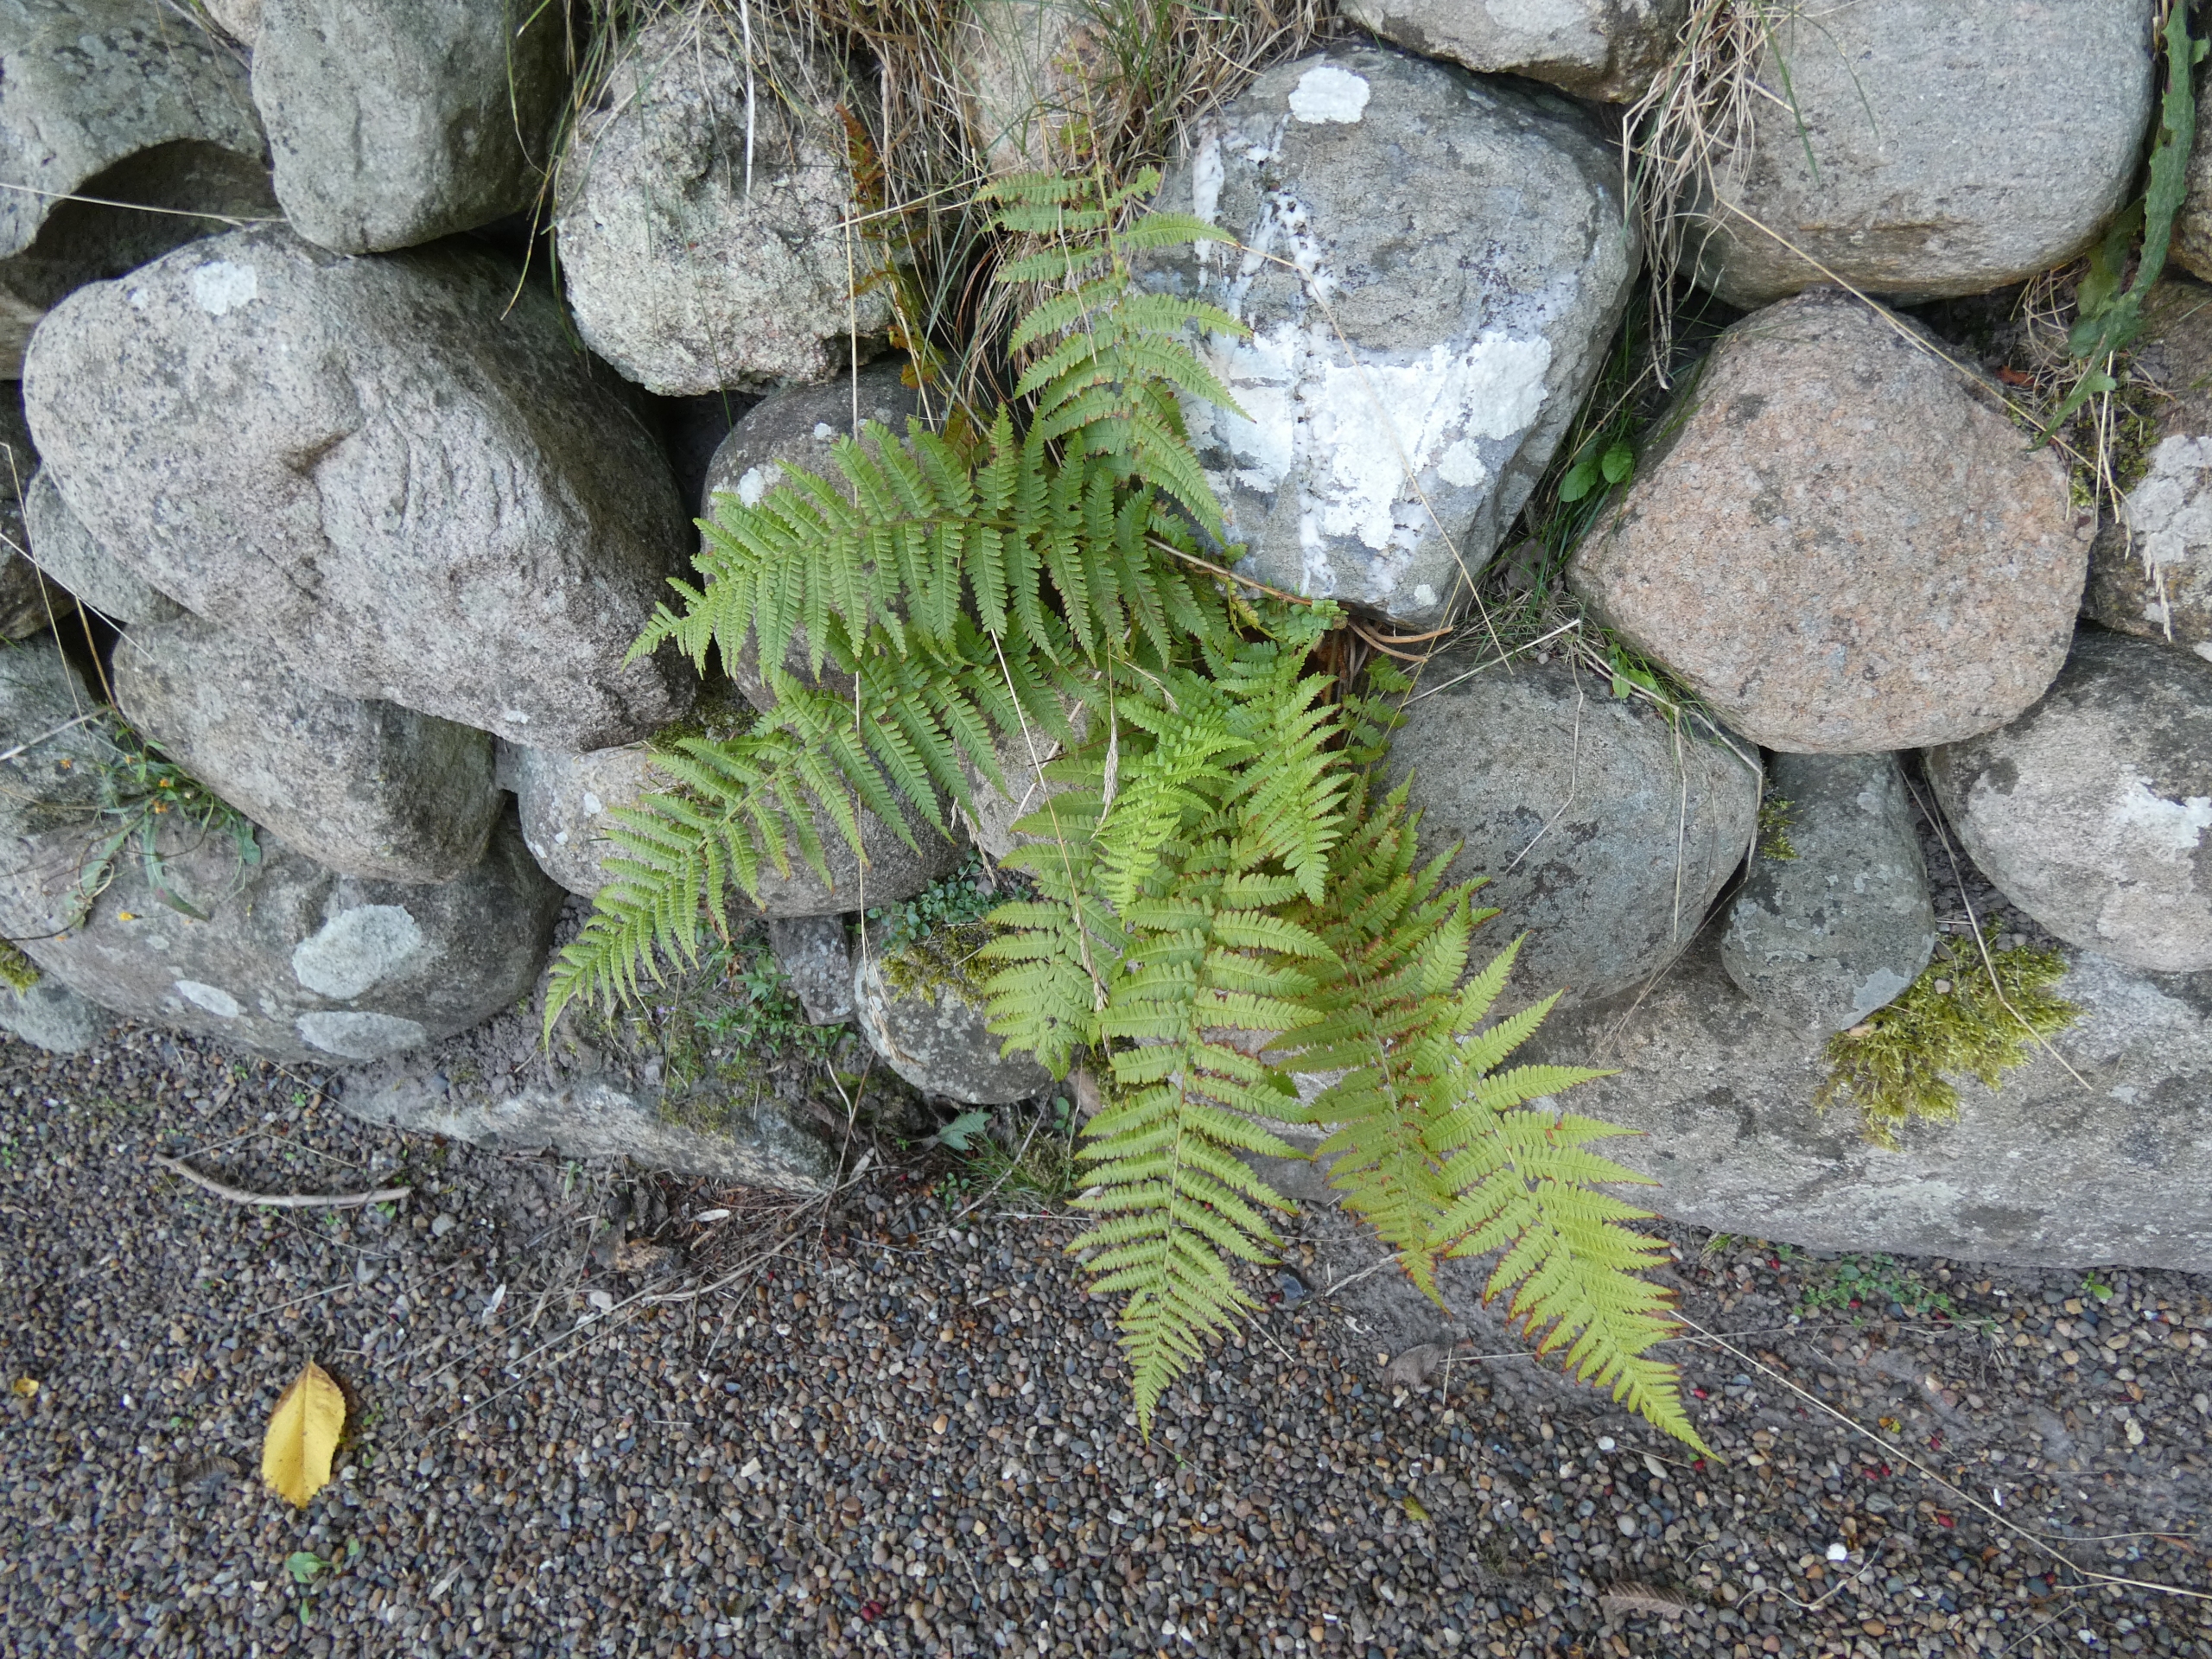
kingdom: Plantae
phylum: Tracheophyta
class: Polypodiopsida
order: Polypodiales
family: Dryopteridaceae
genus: Dryopteris
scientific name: Dryopteris filix-mas
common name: Almindelig mangeløv
